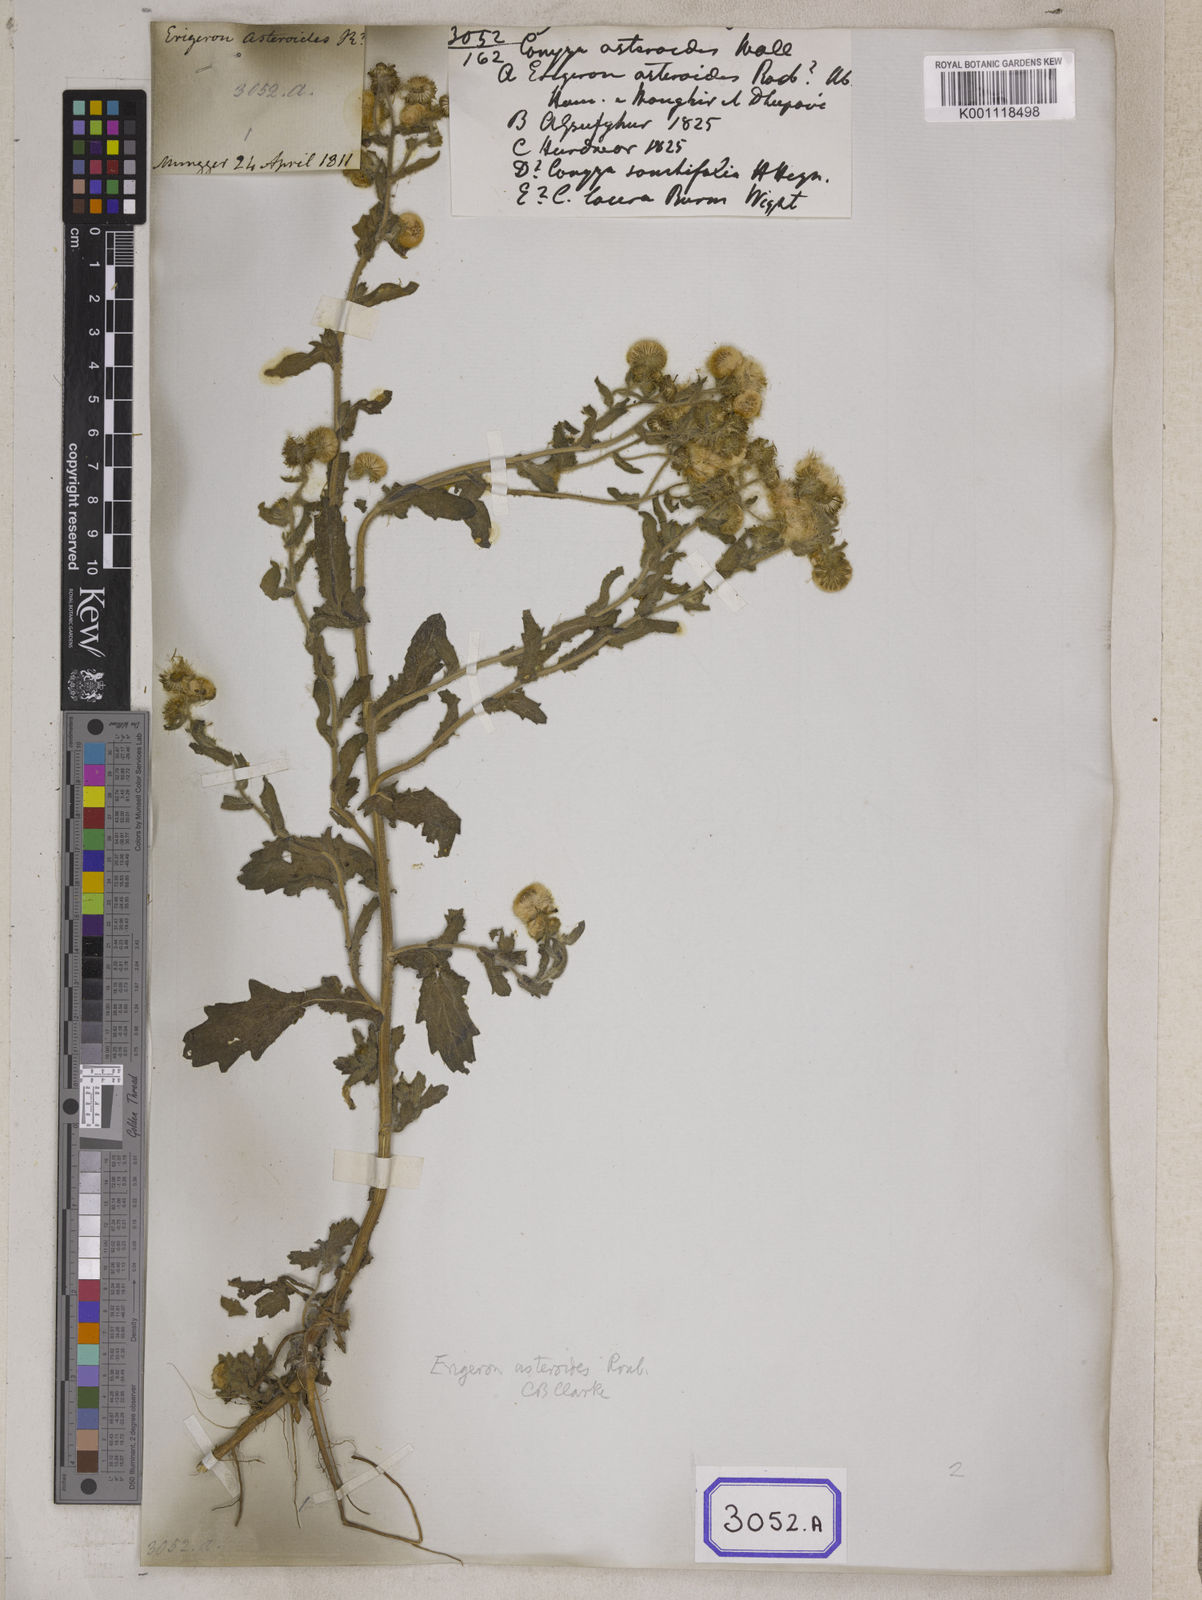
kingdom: Plantae
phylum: Tracheophyta
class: Magnoliopsida
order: Asterales
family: Asteraceae
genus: Pluchea
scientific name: Pluchea dioscoridis
